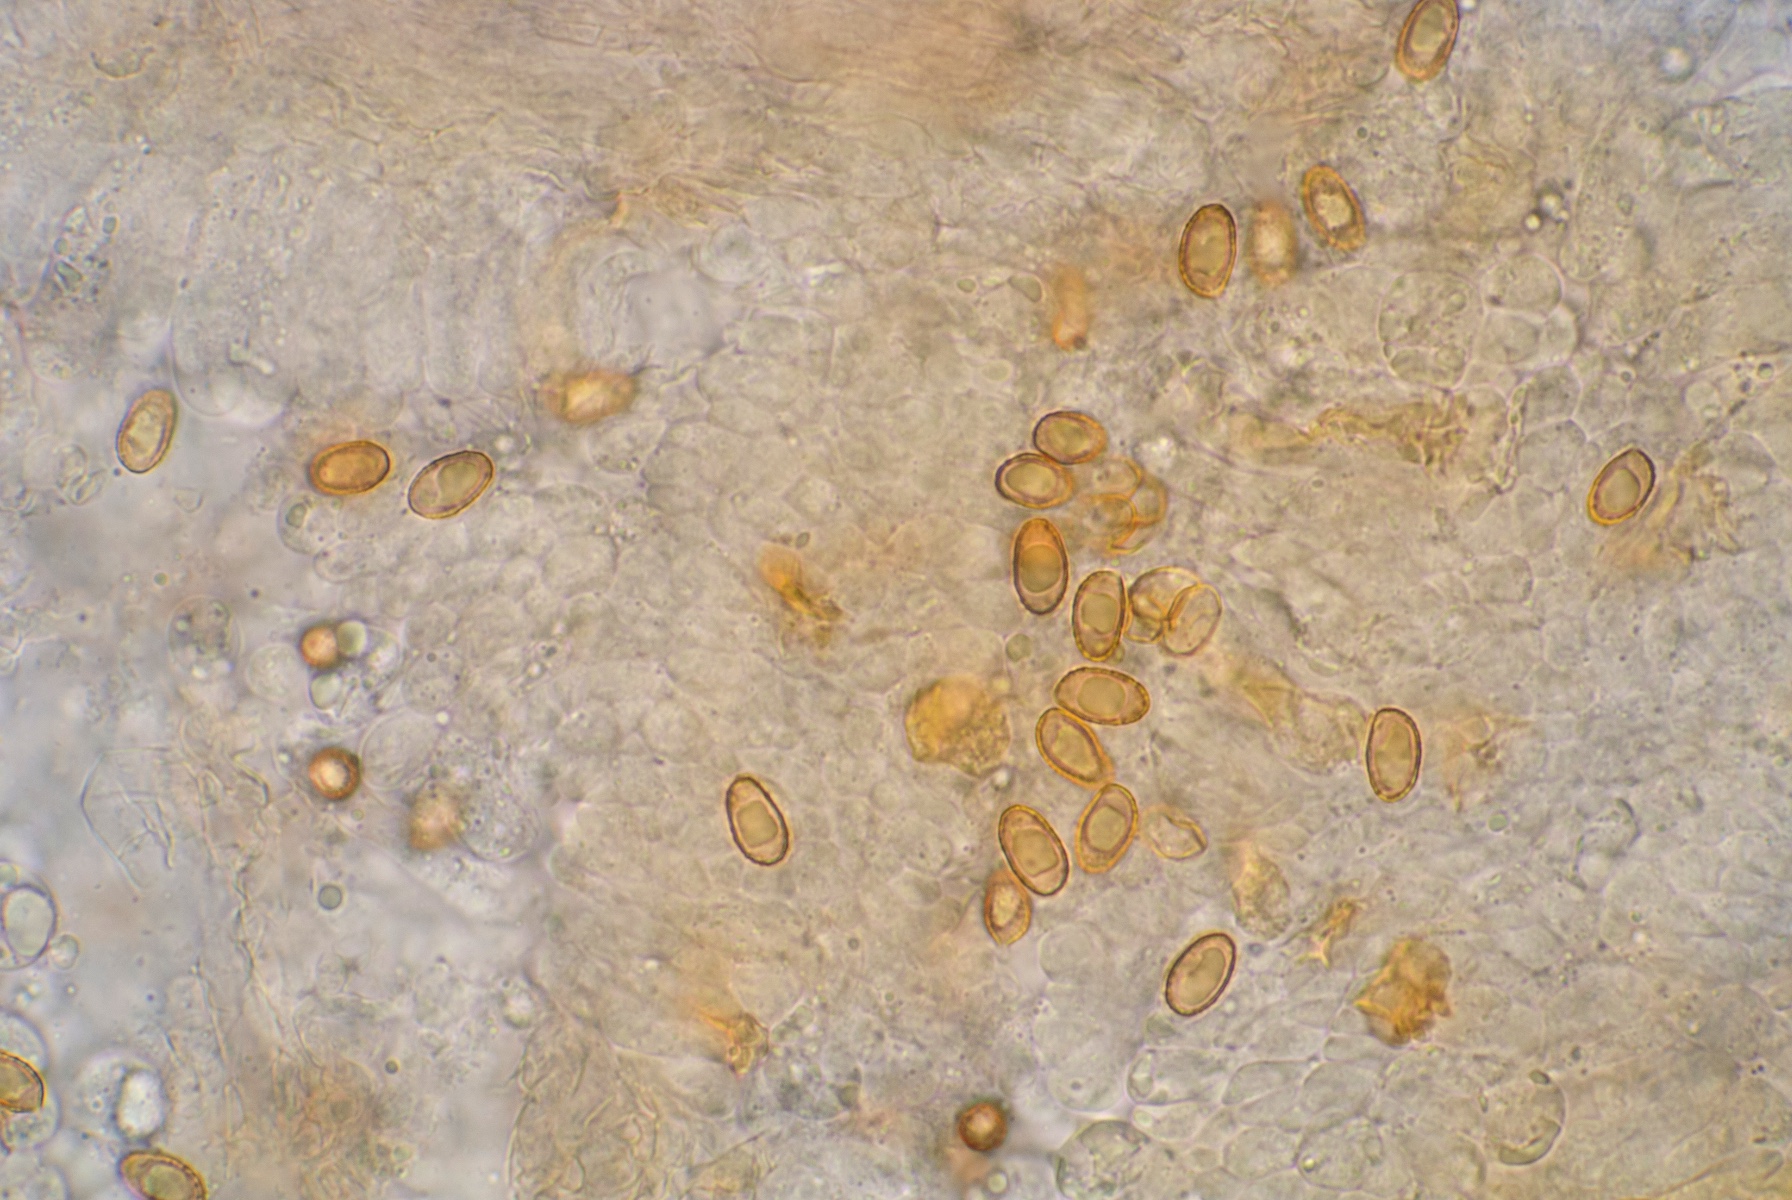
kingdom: Fungi
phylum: Basidiomycota
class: Agaricomycetes
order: Agaricales
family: Cortinariaceae
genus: Cortinarius
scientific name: Cortinarius griseocarneus
